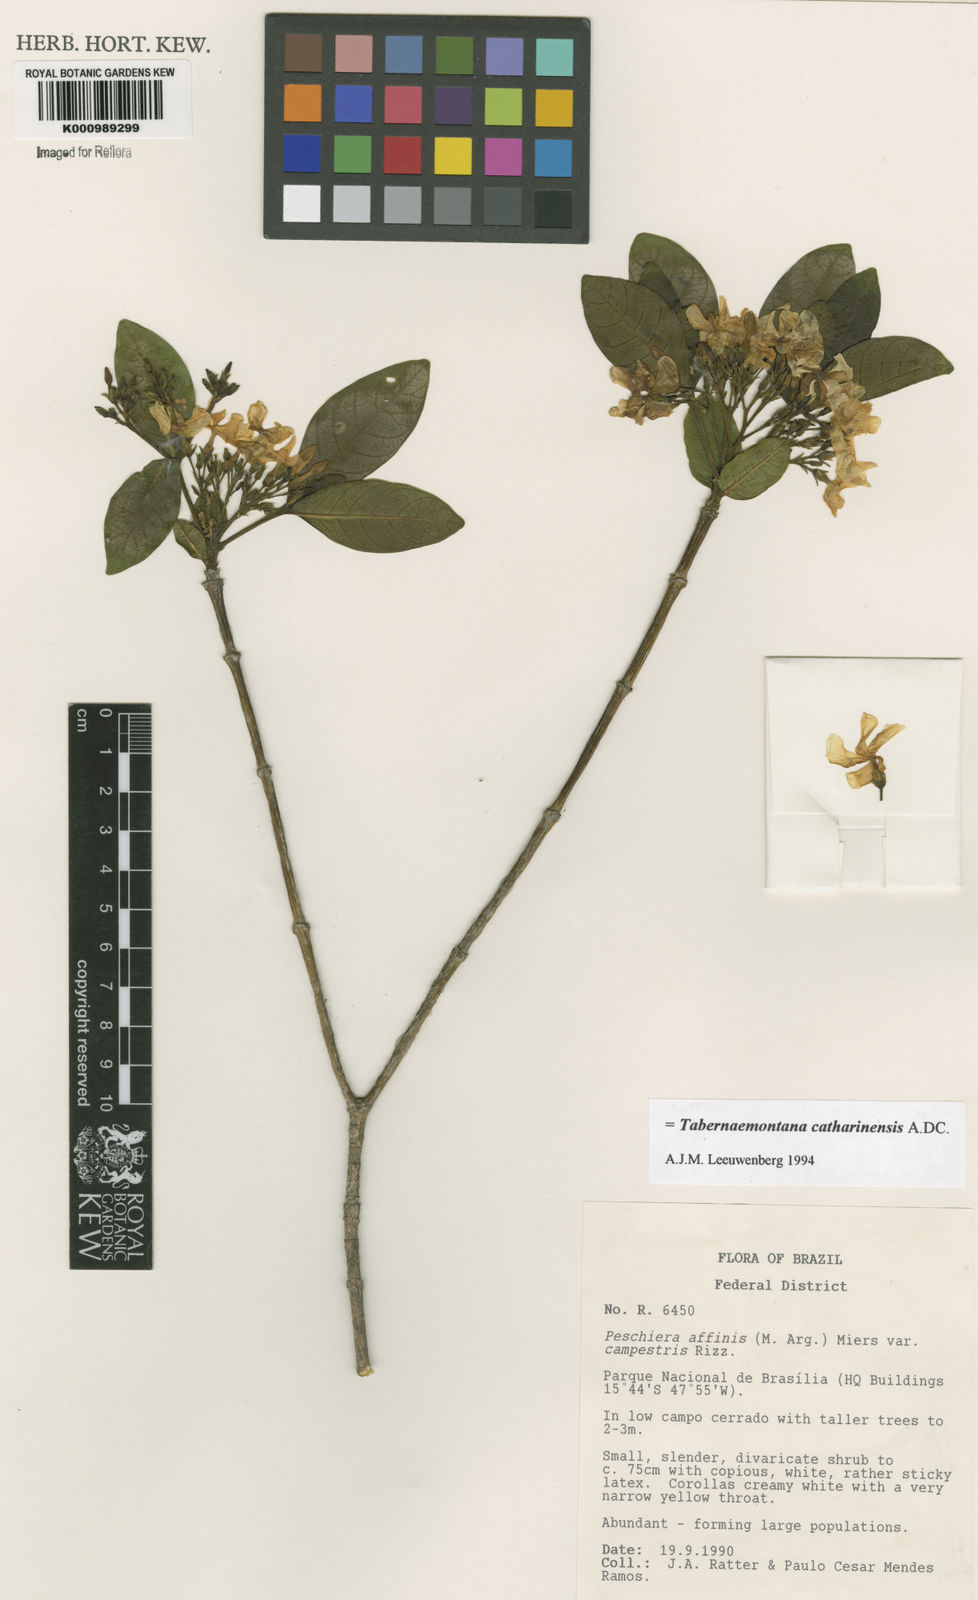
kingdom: Plantae
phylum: Tracheophyta
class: Magnoliopsida
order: Gentianales
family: Apocynaceae
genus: Tabernaemontana
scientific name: Tabernaemontana catharinensis
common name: Pinwheel-flower
